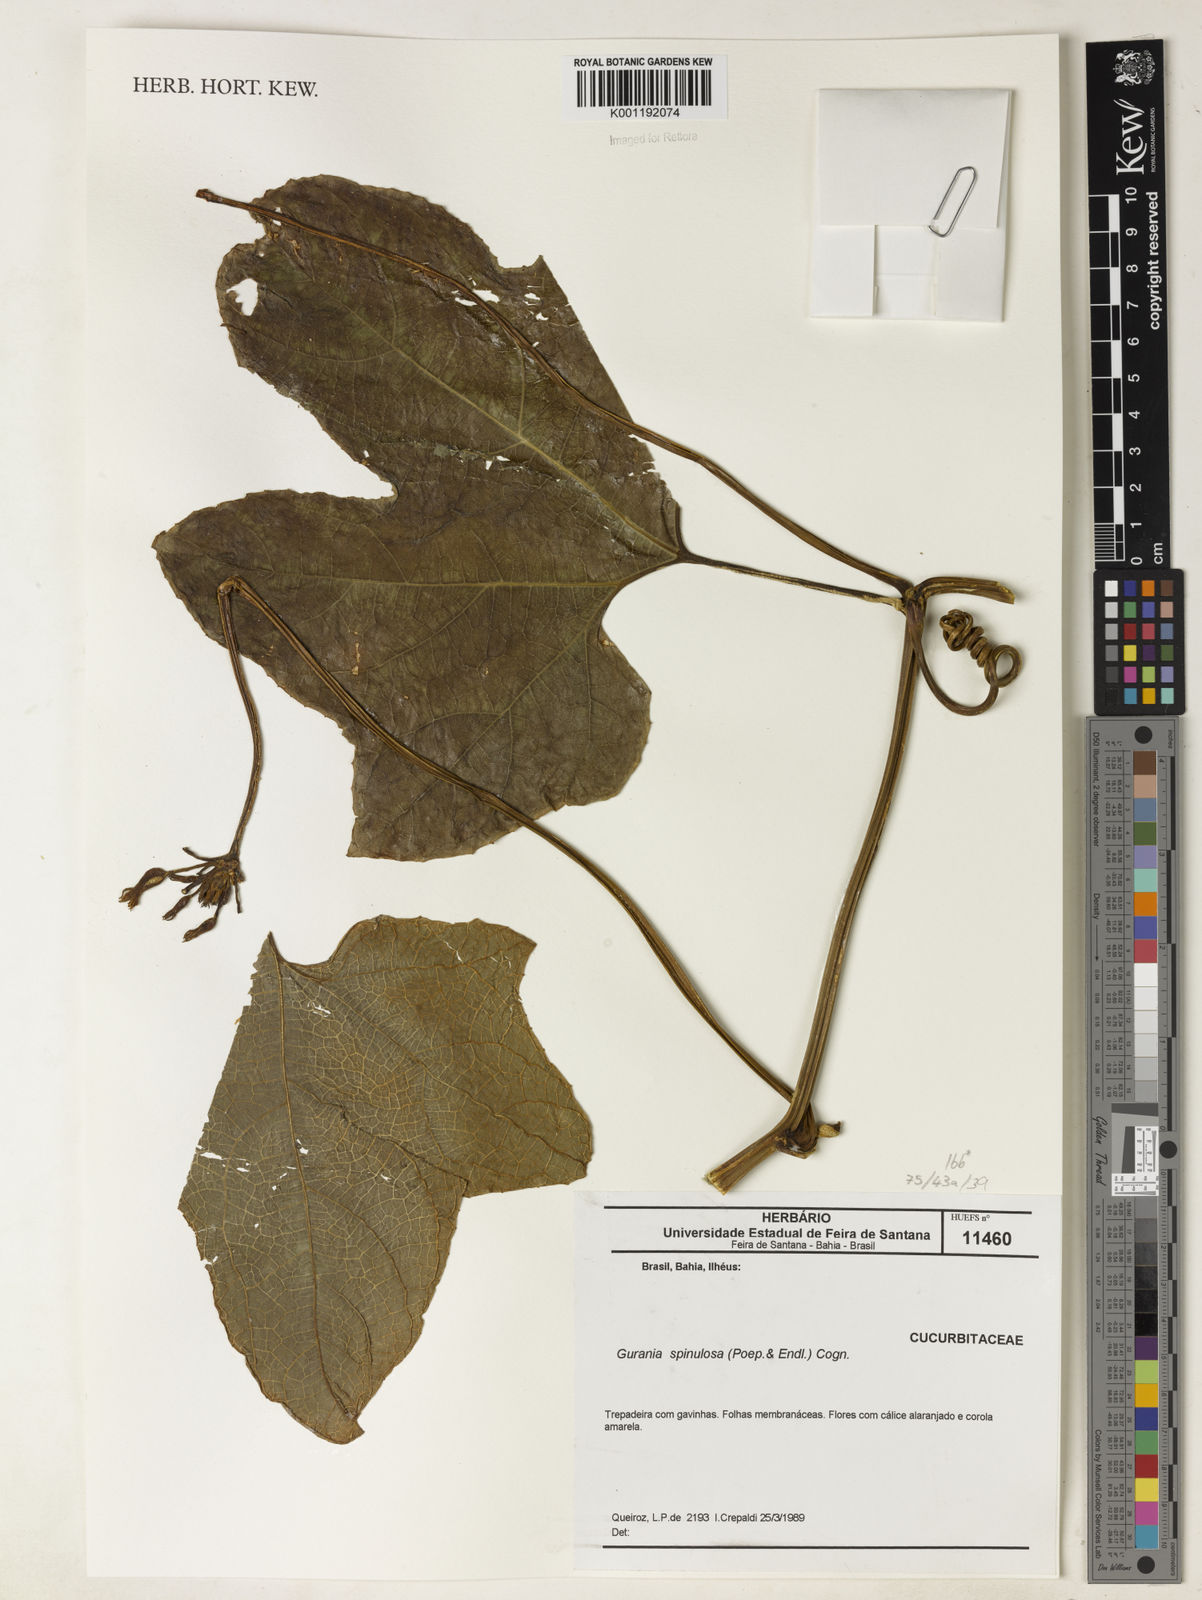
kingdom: Plantae
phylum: Tracheophyta
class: Magnoliopsida
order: Cucurbitales
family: Cucurbitaceae
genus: Gurania
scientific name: Gurania lobata
